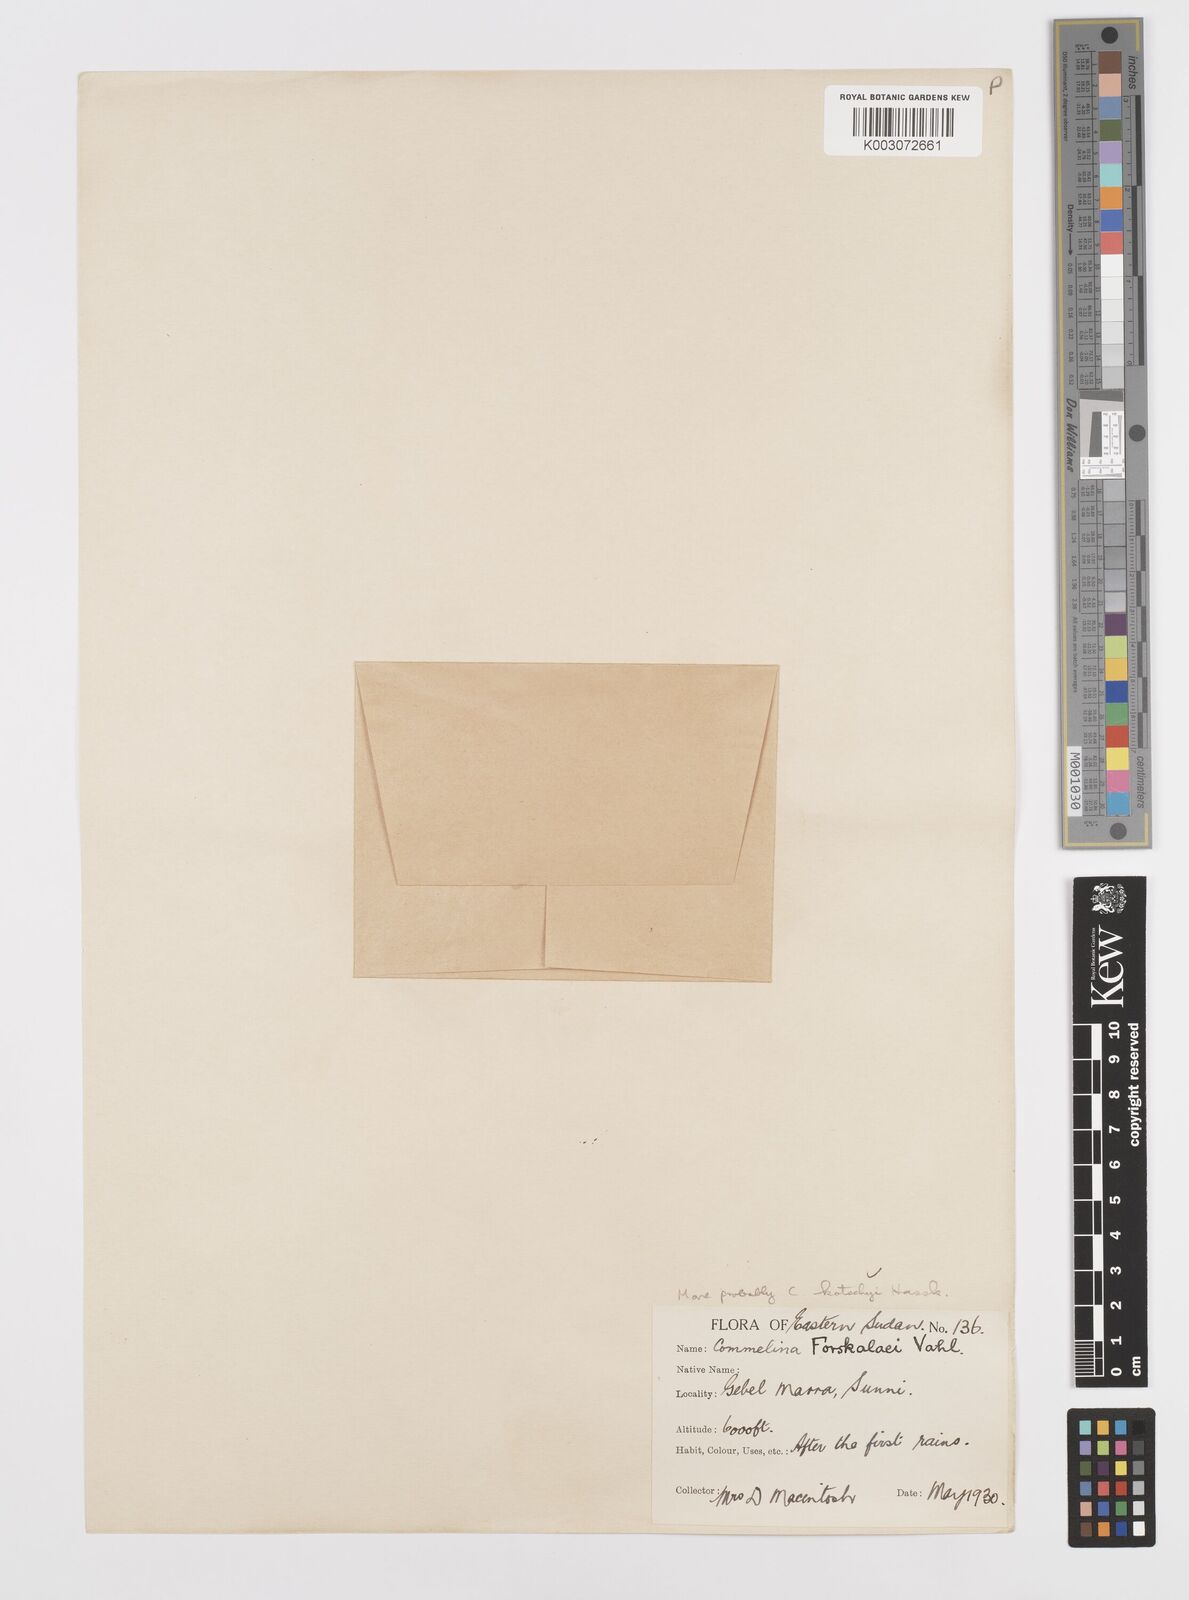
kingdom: Plantae
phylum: Tracheophyta
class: Liliopsida
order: Commelinales
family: Commelinaceae
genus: Commelina
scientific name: Commelina kotschyi
